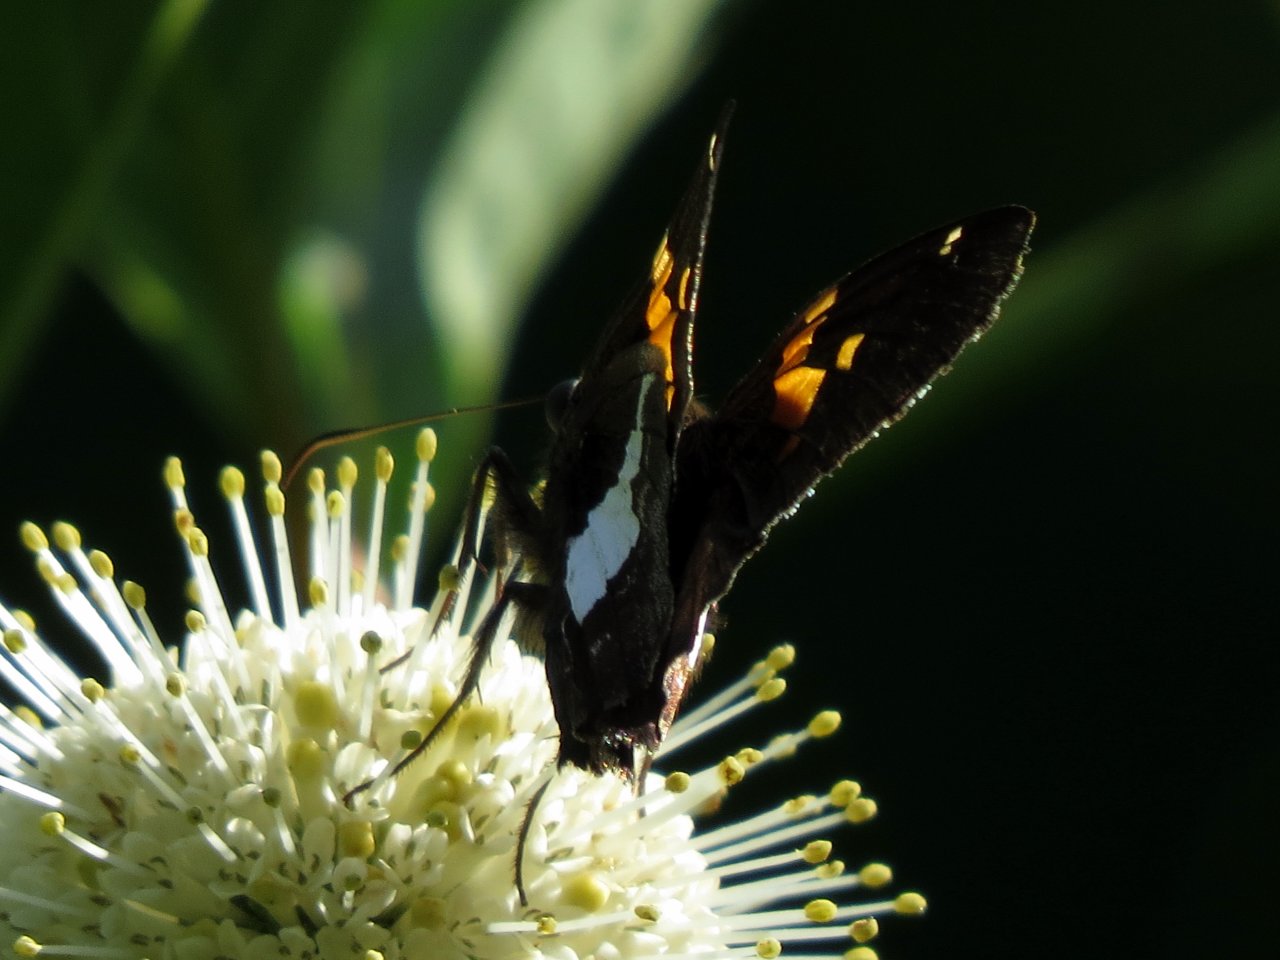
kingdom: Animalia
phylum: Arthropoda
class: Insecta
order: Lepidoptera
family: Hesperiidae
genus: Epargyreus
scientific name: Epargyreus clarus
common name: Silver-spotted Skipper
